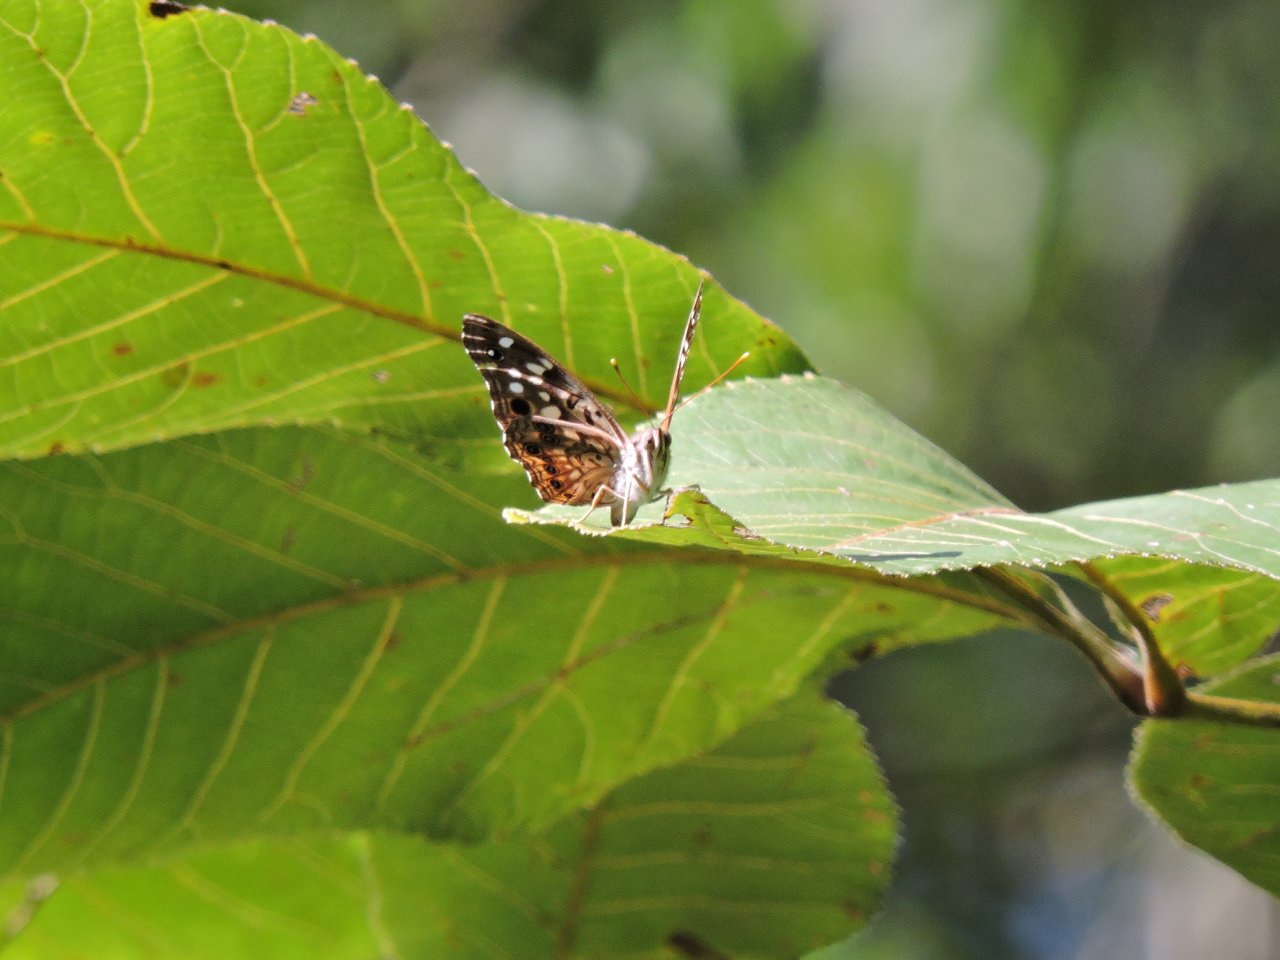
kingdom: Animalia
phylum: Arthropoda
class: Insecta
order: Lepidoptera
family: Nymphalidae
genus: Asterocampa
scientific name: Asterocampa celtis
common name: Hackberry Emperor
